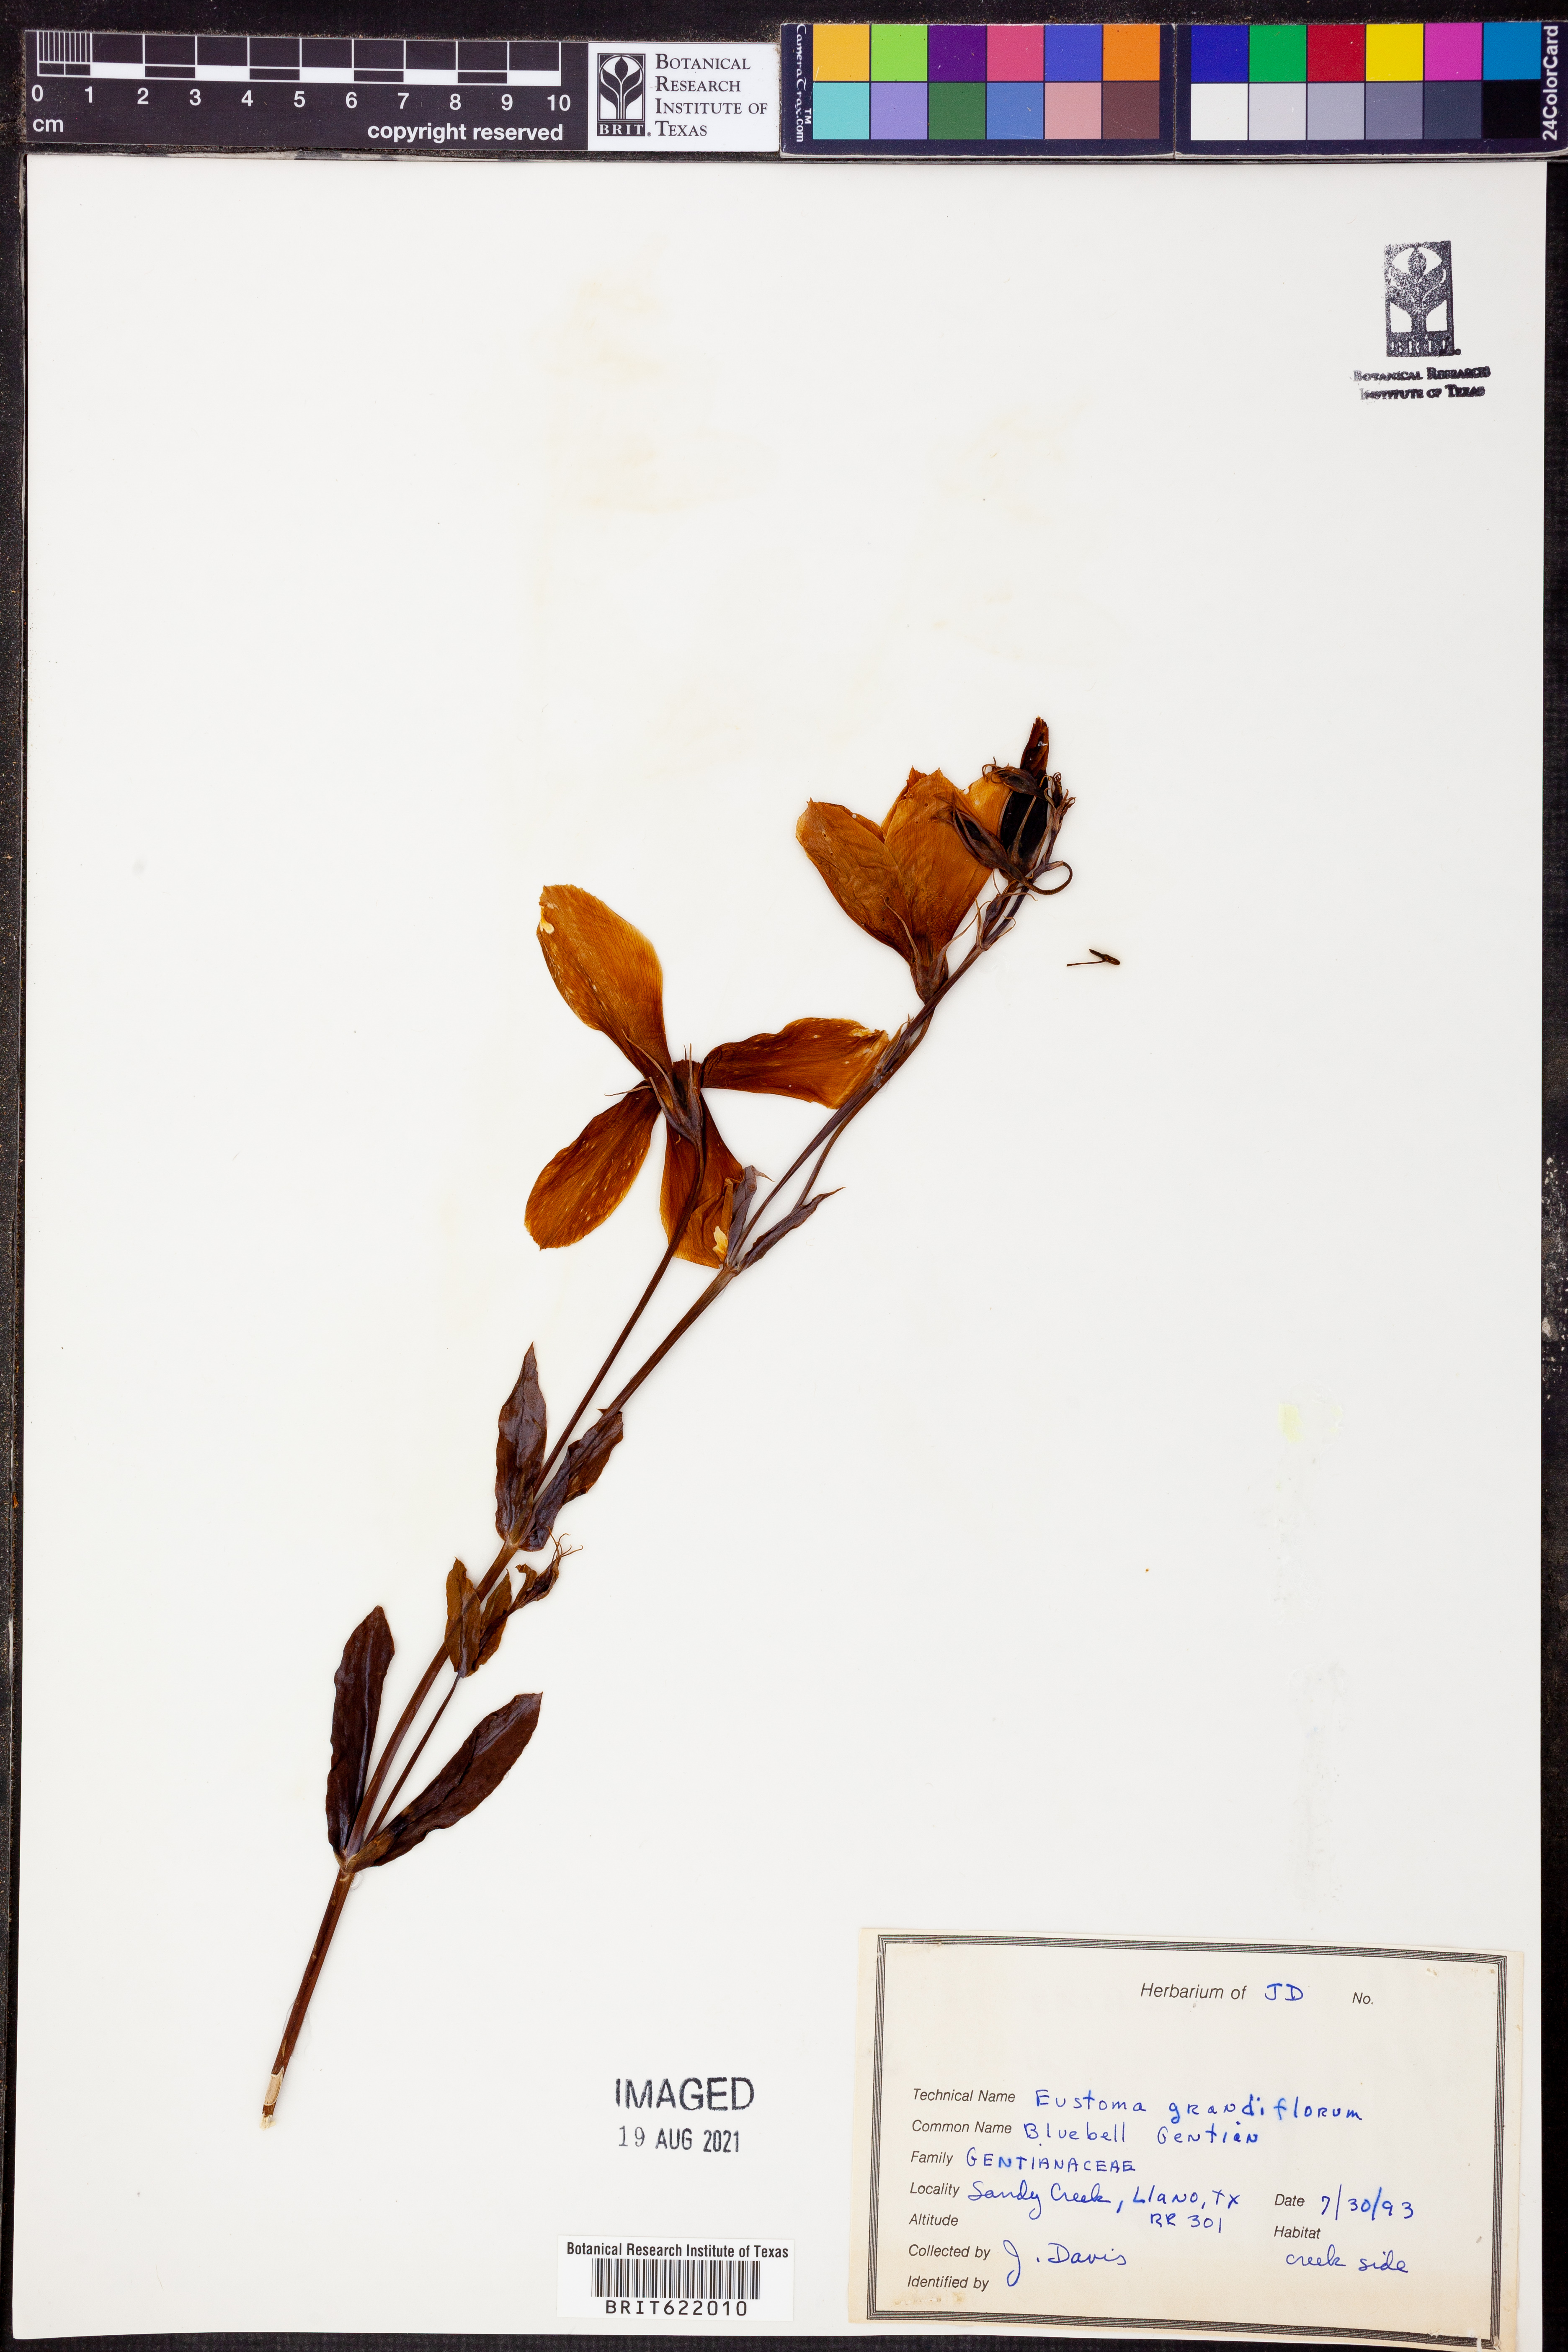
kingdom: Plantae
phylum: Tracheophyta
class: Magnoliopsida
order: Gentianales
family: Gentianaceae
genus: Eustoma
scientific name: Eustoma russellianum
